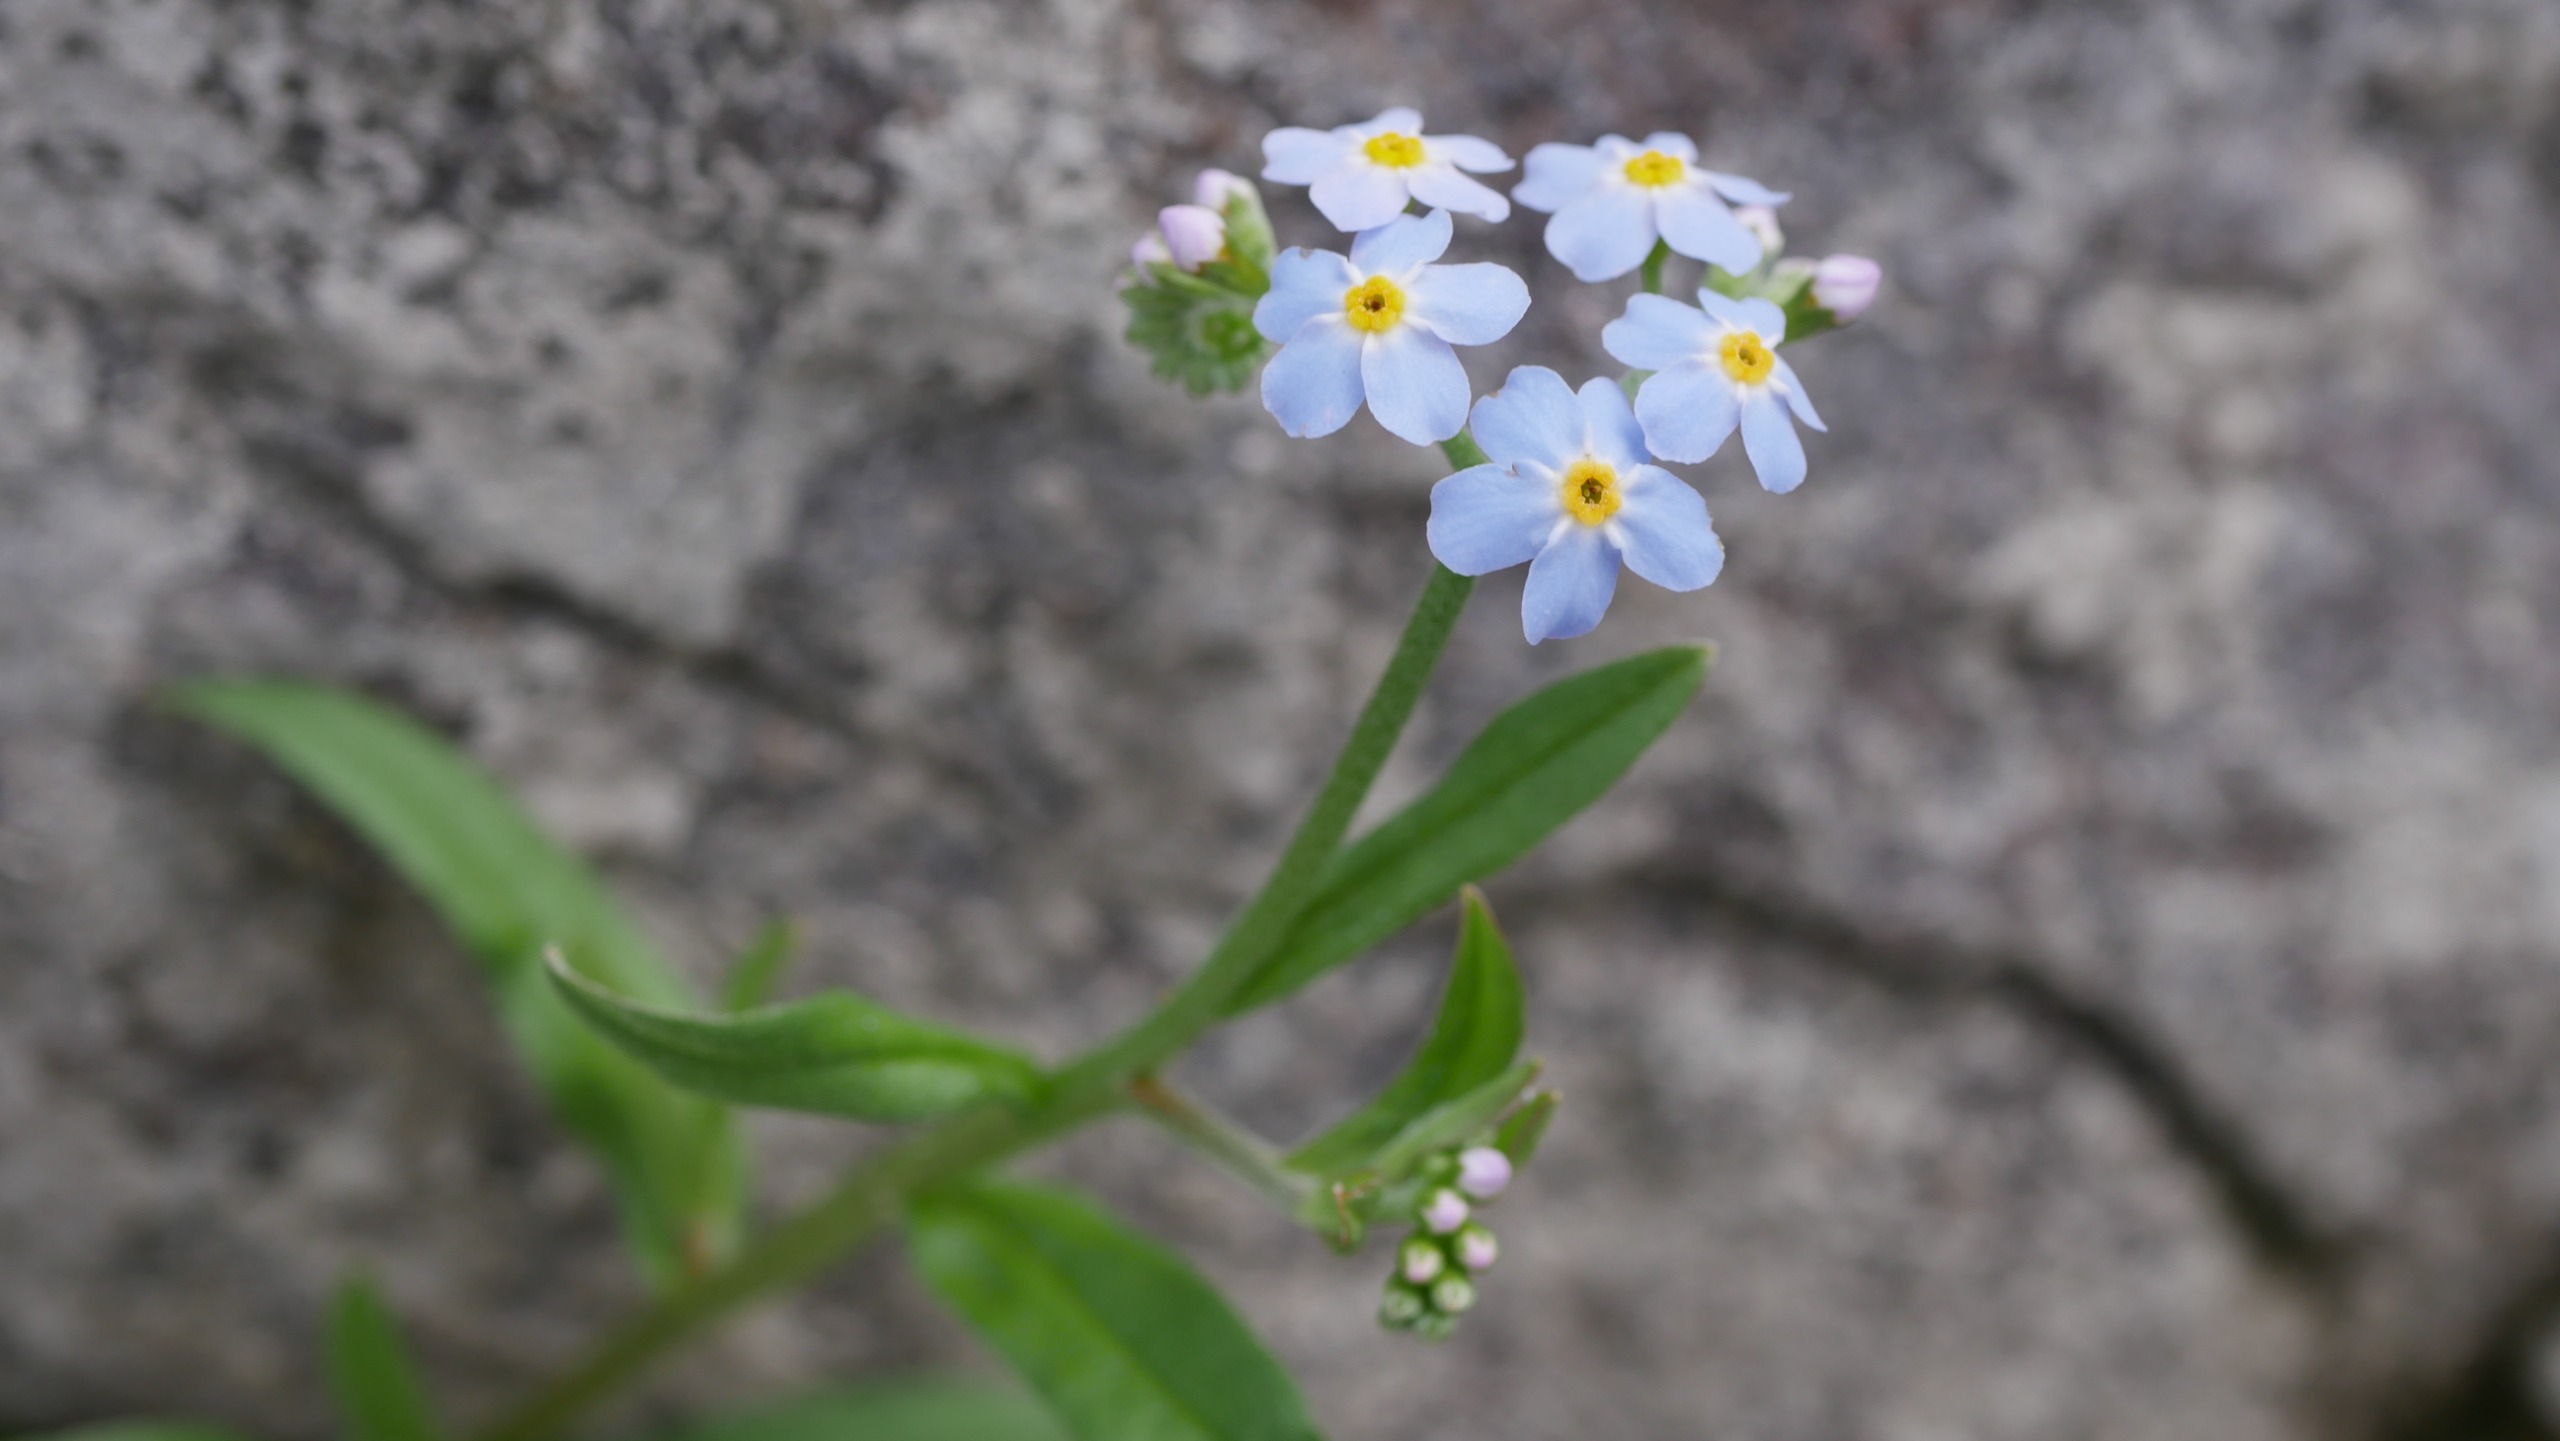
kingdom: Plantae
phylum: Tracheophyta
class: Magnoliopsida
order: Boraginales
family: Boraginaceae
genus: Myosotis
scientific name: Myosotis scorpioides
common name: Eng-forglemmigej
